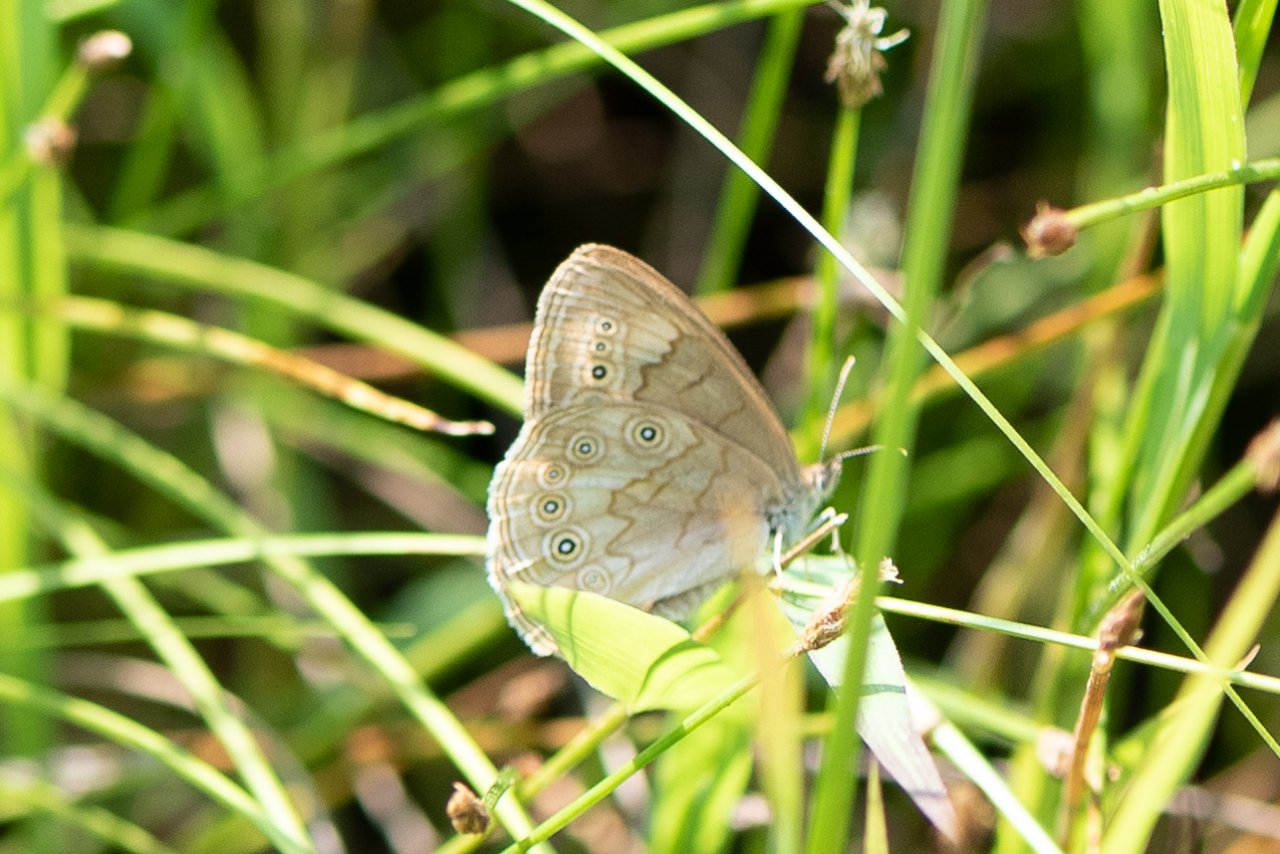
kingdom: Animalia
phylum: Arthropoda
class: Insecta
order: Lepidoptera
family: Nymphalidae
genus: Lethe
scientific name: Lethe eurydice
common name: Eyed Brown
